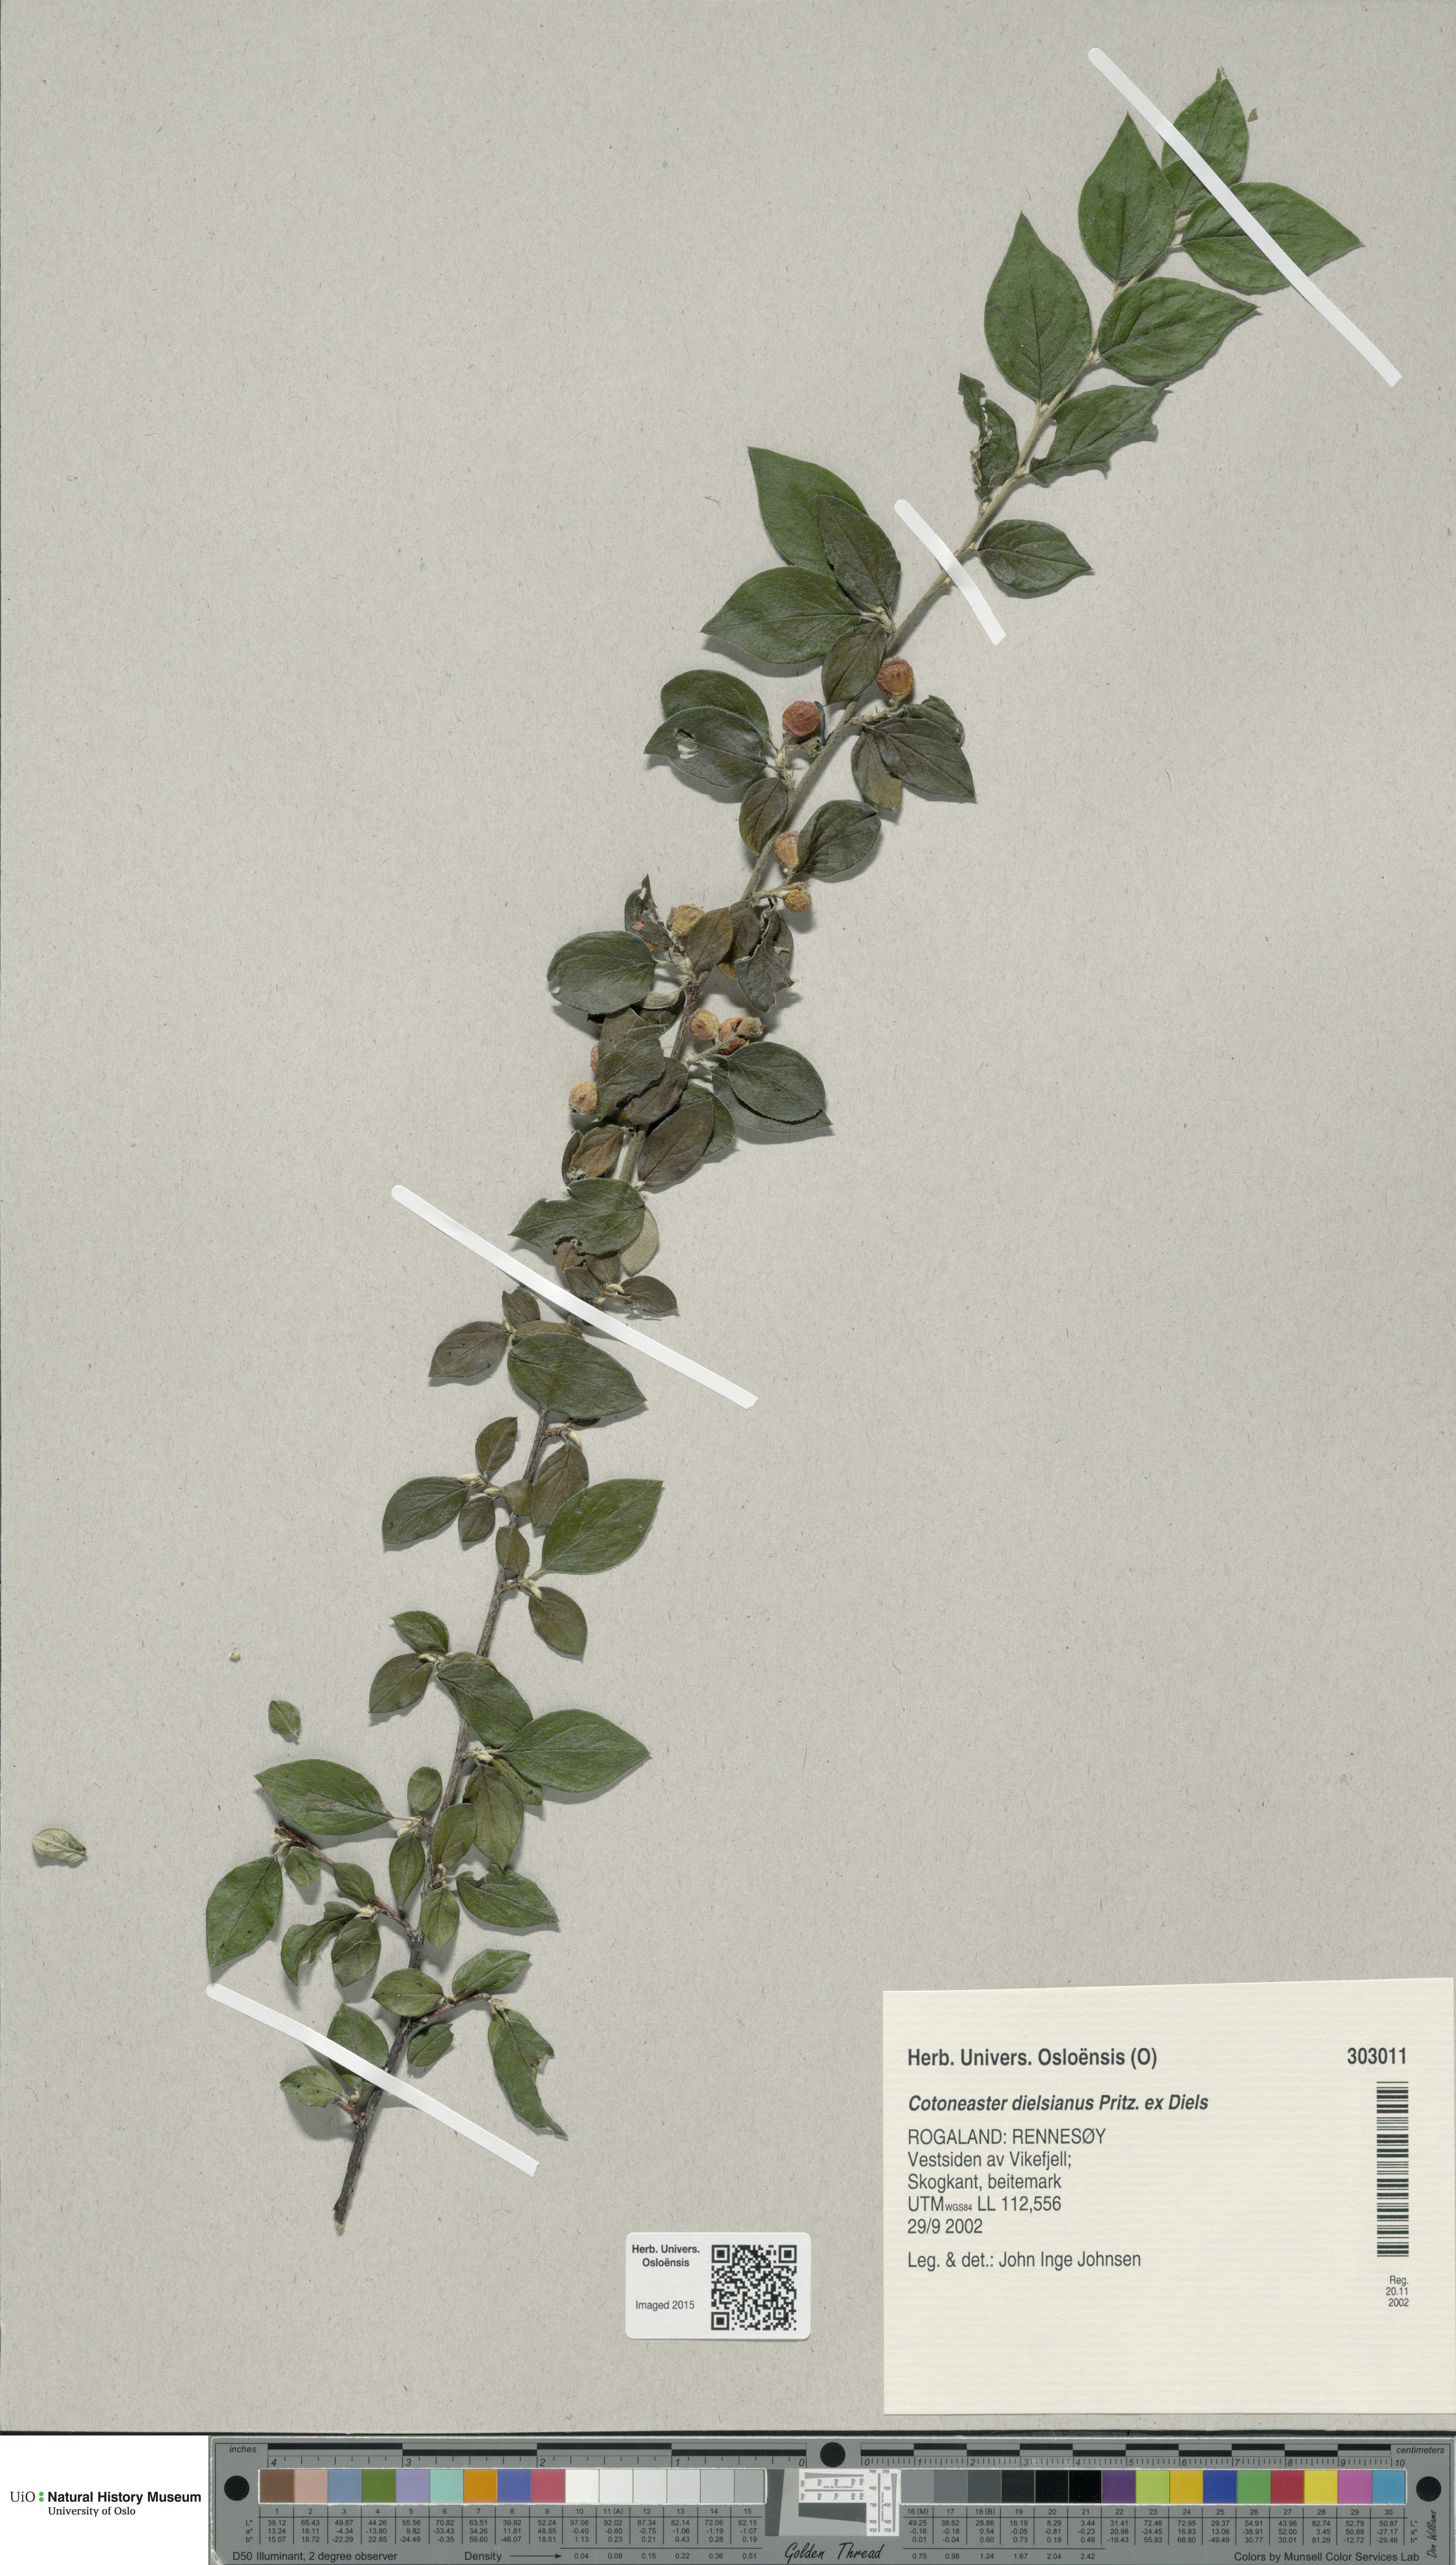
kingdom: Plantae
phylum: Tracheophyta
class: Magnoliopsida
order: Rosales
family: Rosaceae
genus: Cotoneaster
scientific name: Cotoneaster dielsianus
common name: Diels's cotoneaster
